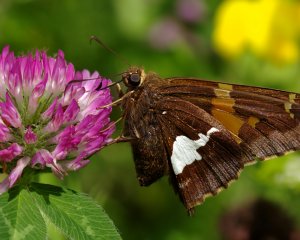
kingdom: Animalia
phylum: Arthropoda
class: Insecta
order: Lepidoptera
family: Hesperiidae
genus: Epargyreus
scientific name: Epargyreus clarus
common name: Silver-spotted Skipper
